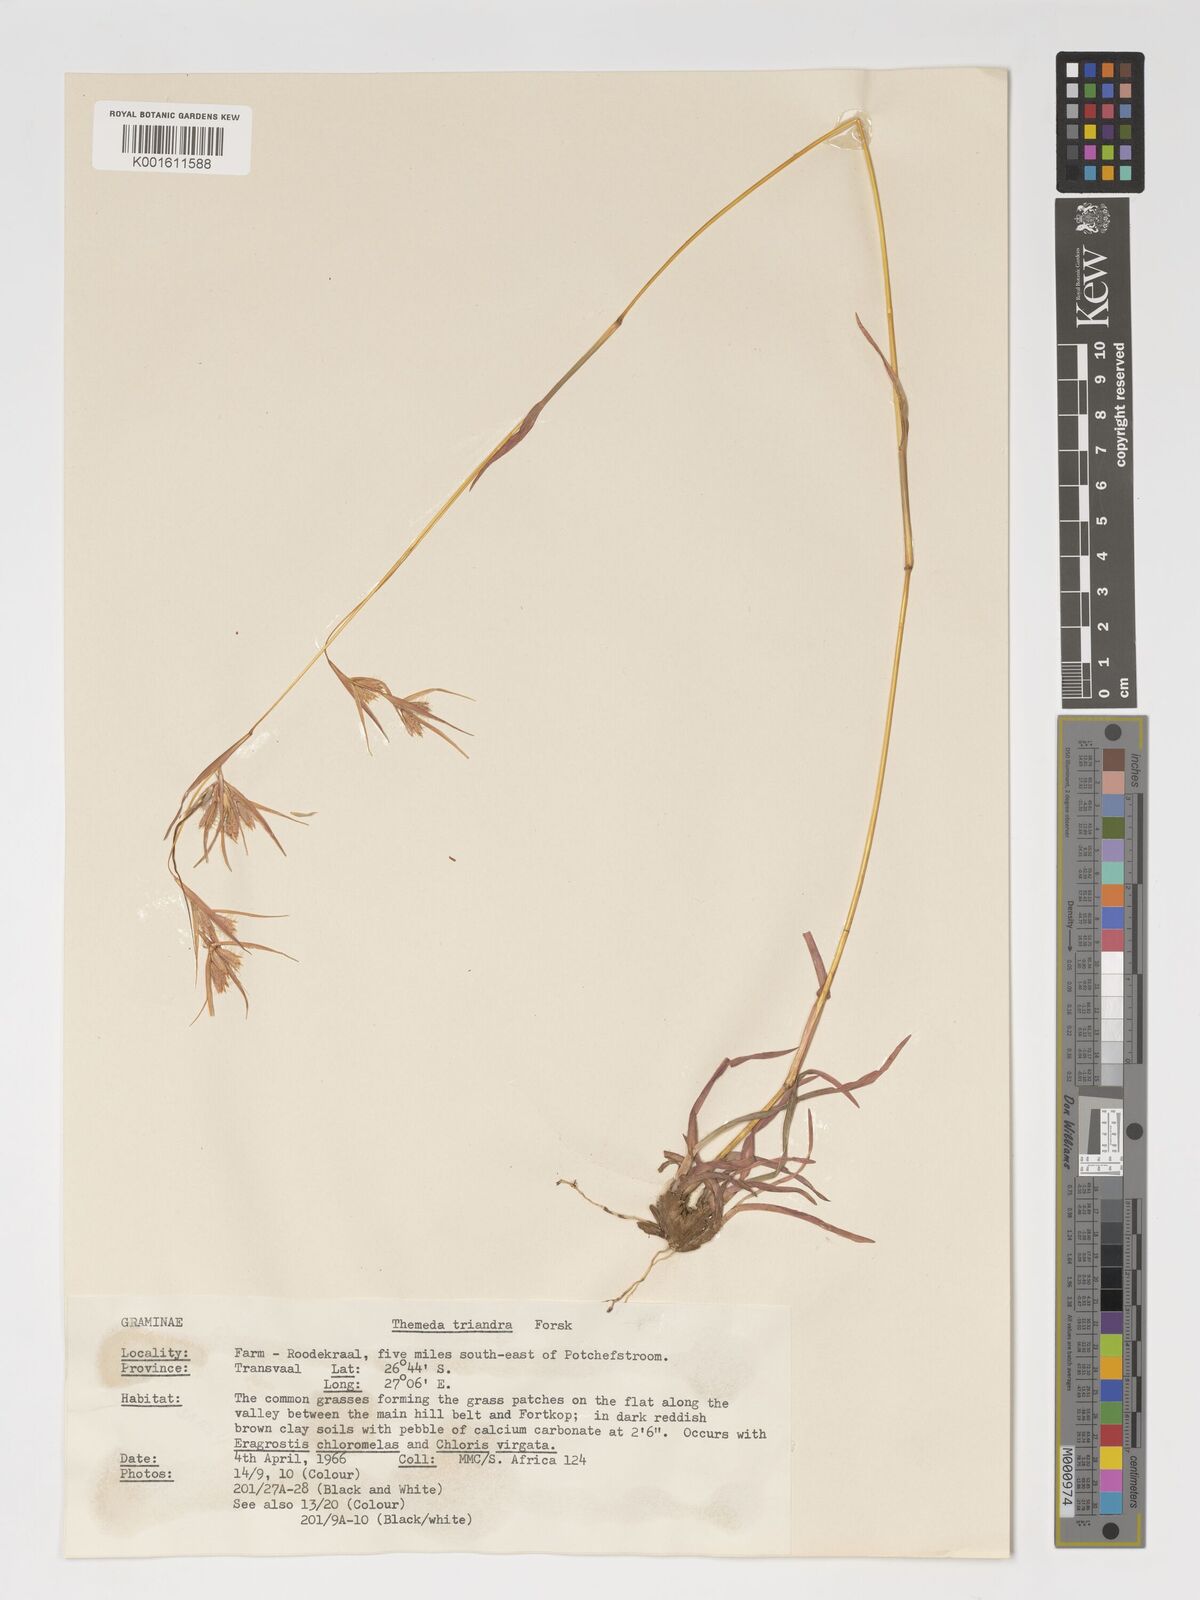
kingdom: Plantae
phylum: Tracheophyta
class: Liliopsida
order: Poales
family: Poaceae
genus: Themeda
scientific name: Themeda triandra
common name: Kangaroo grass
